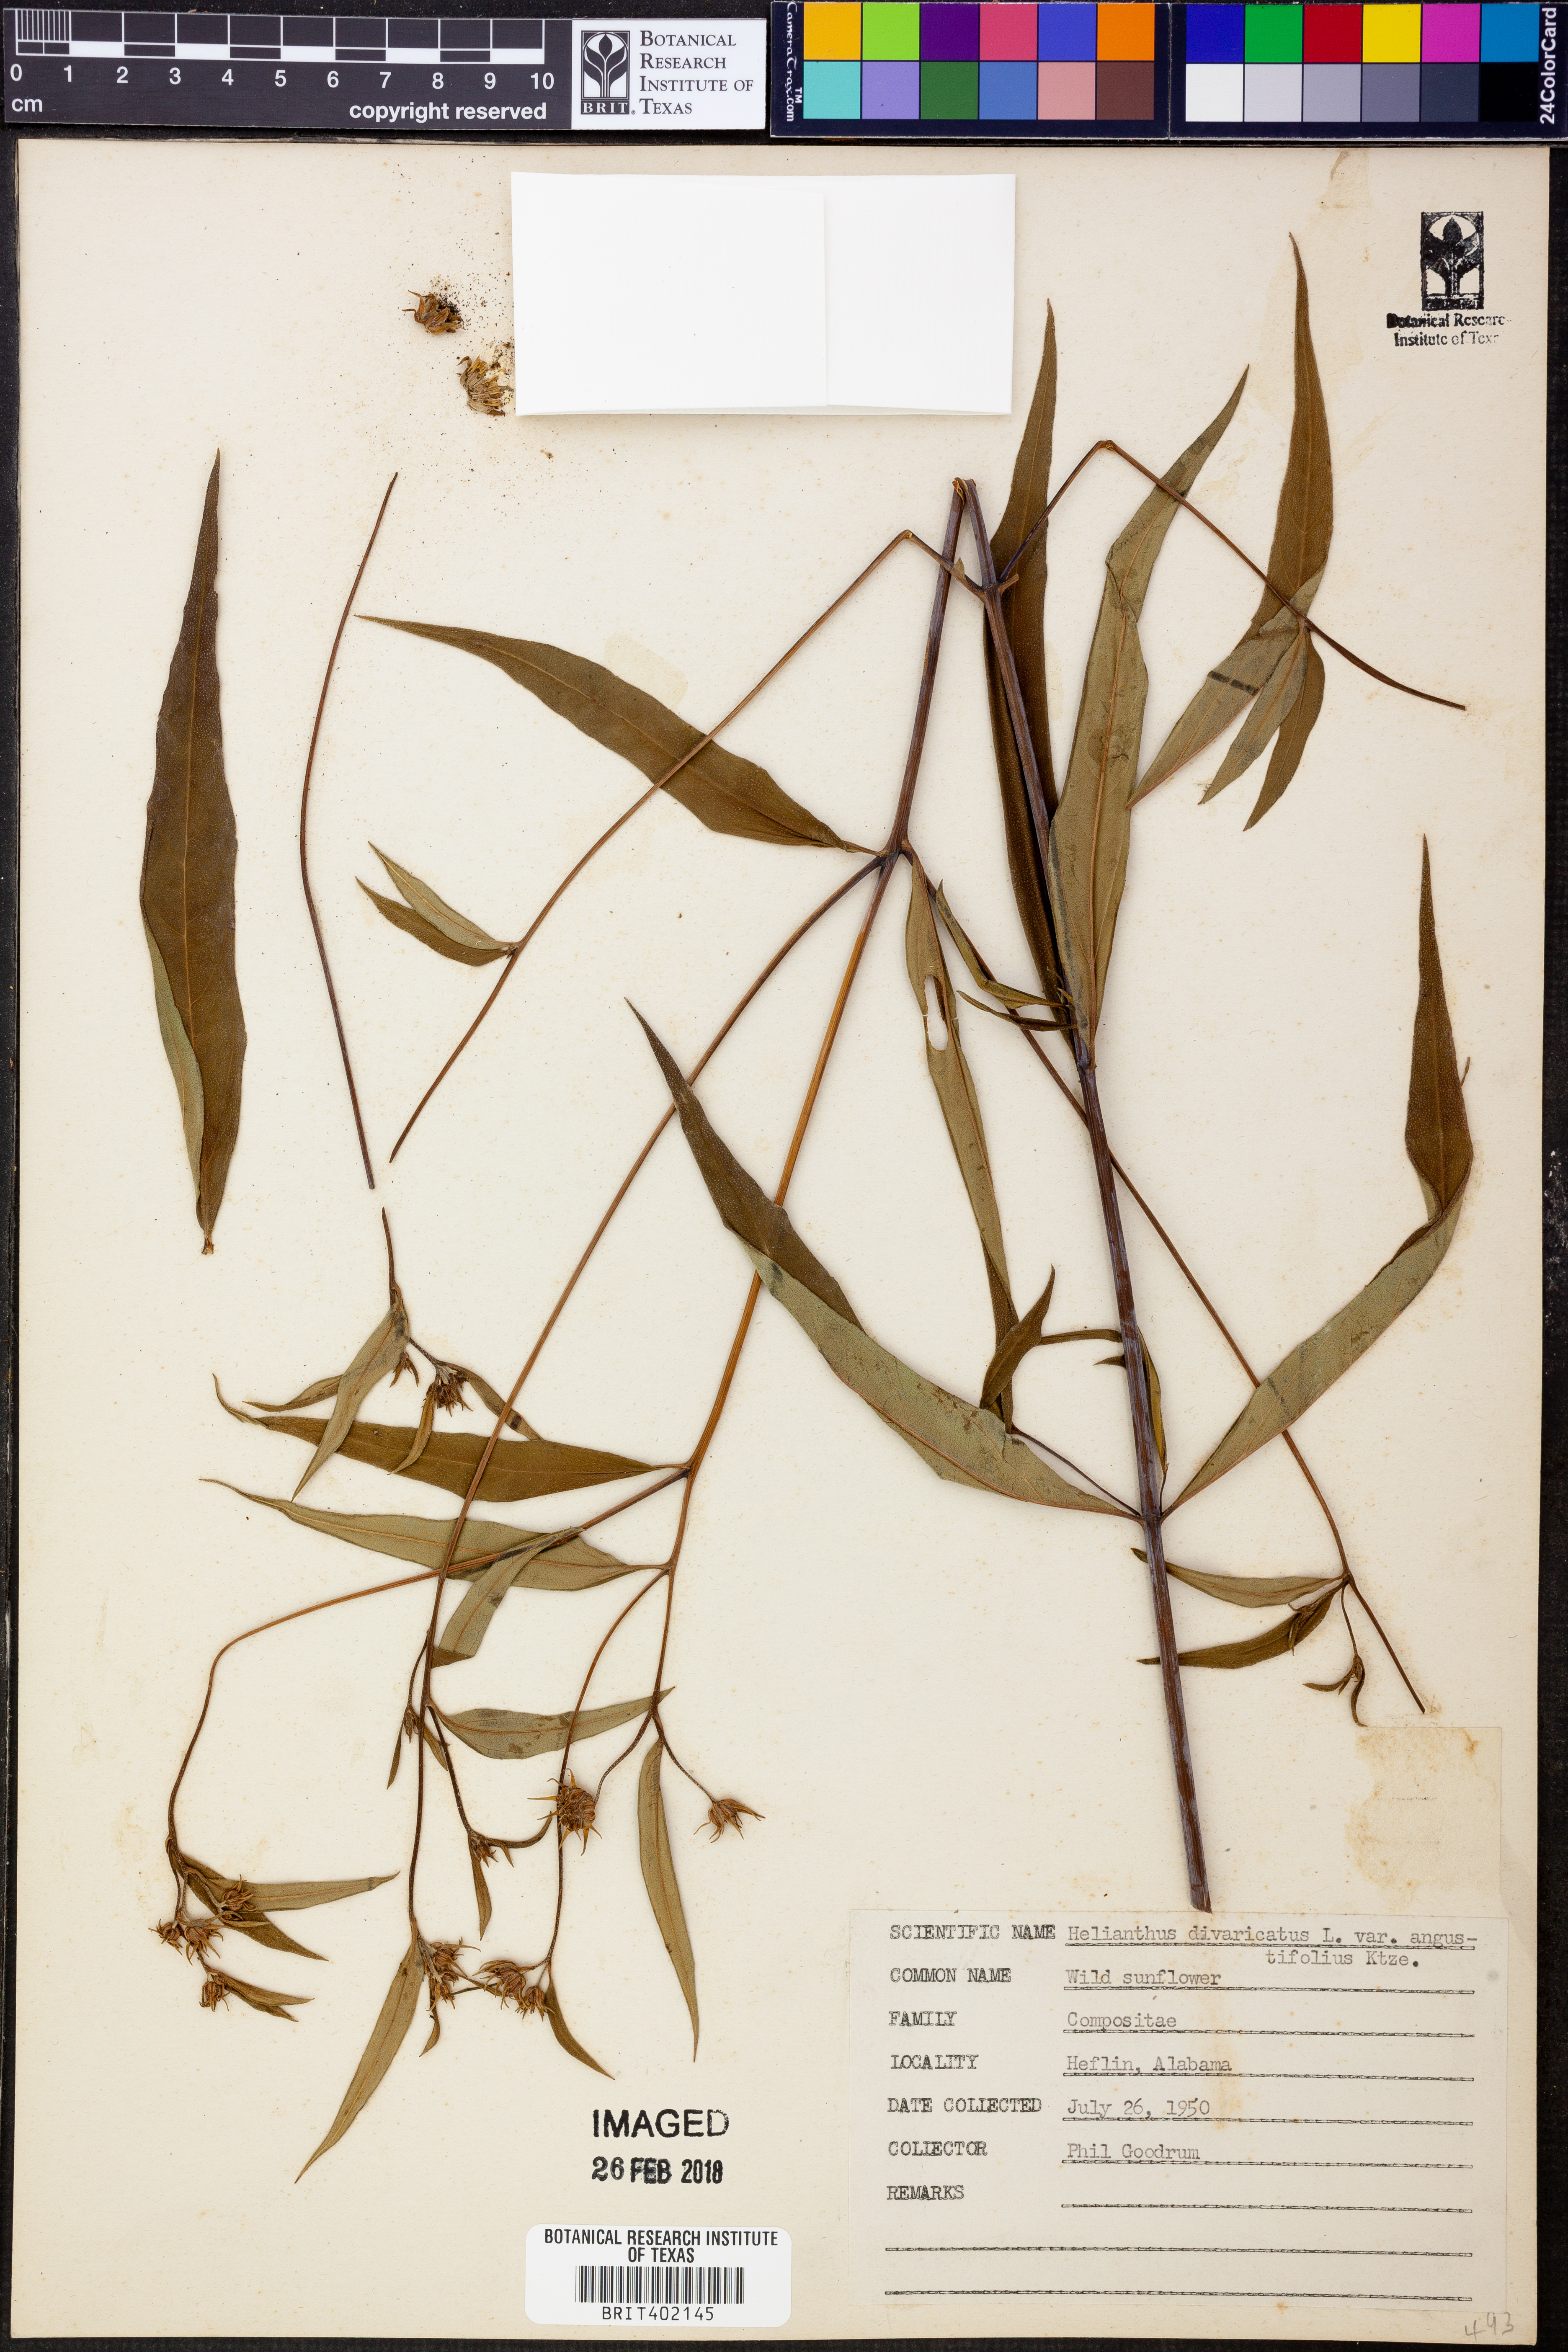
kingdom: Plantae
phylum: Tracheophyta
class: Magnoliopsida
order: Asterales
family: Asteraceae
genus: Helianthus
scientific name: Helianthus divaricatus
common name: Divergent sunflower
